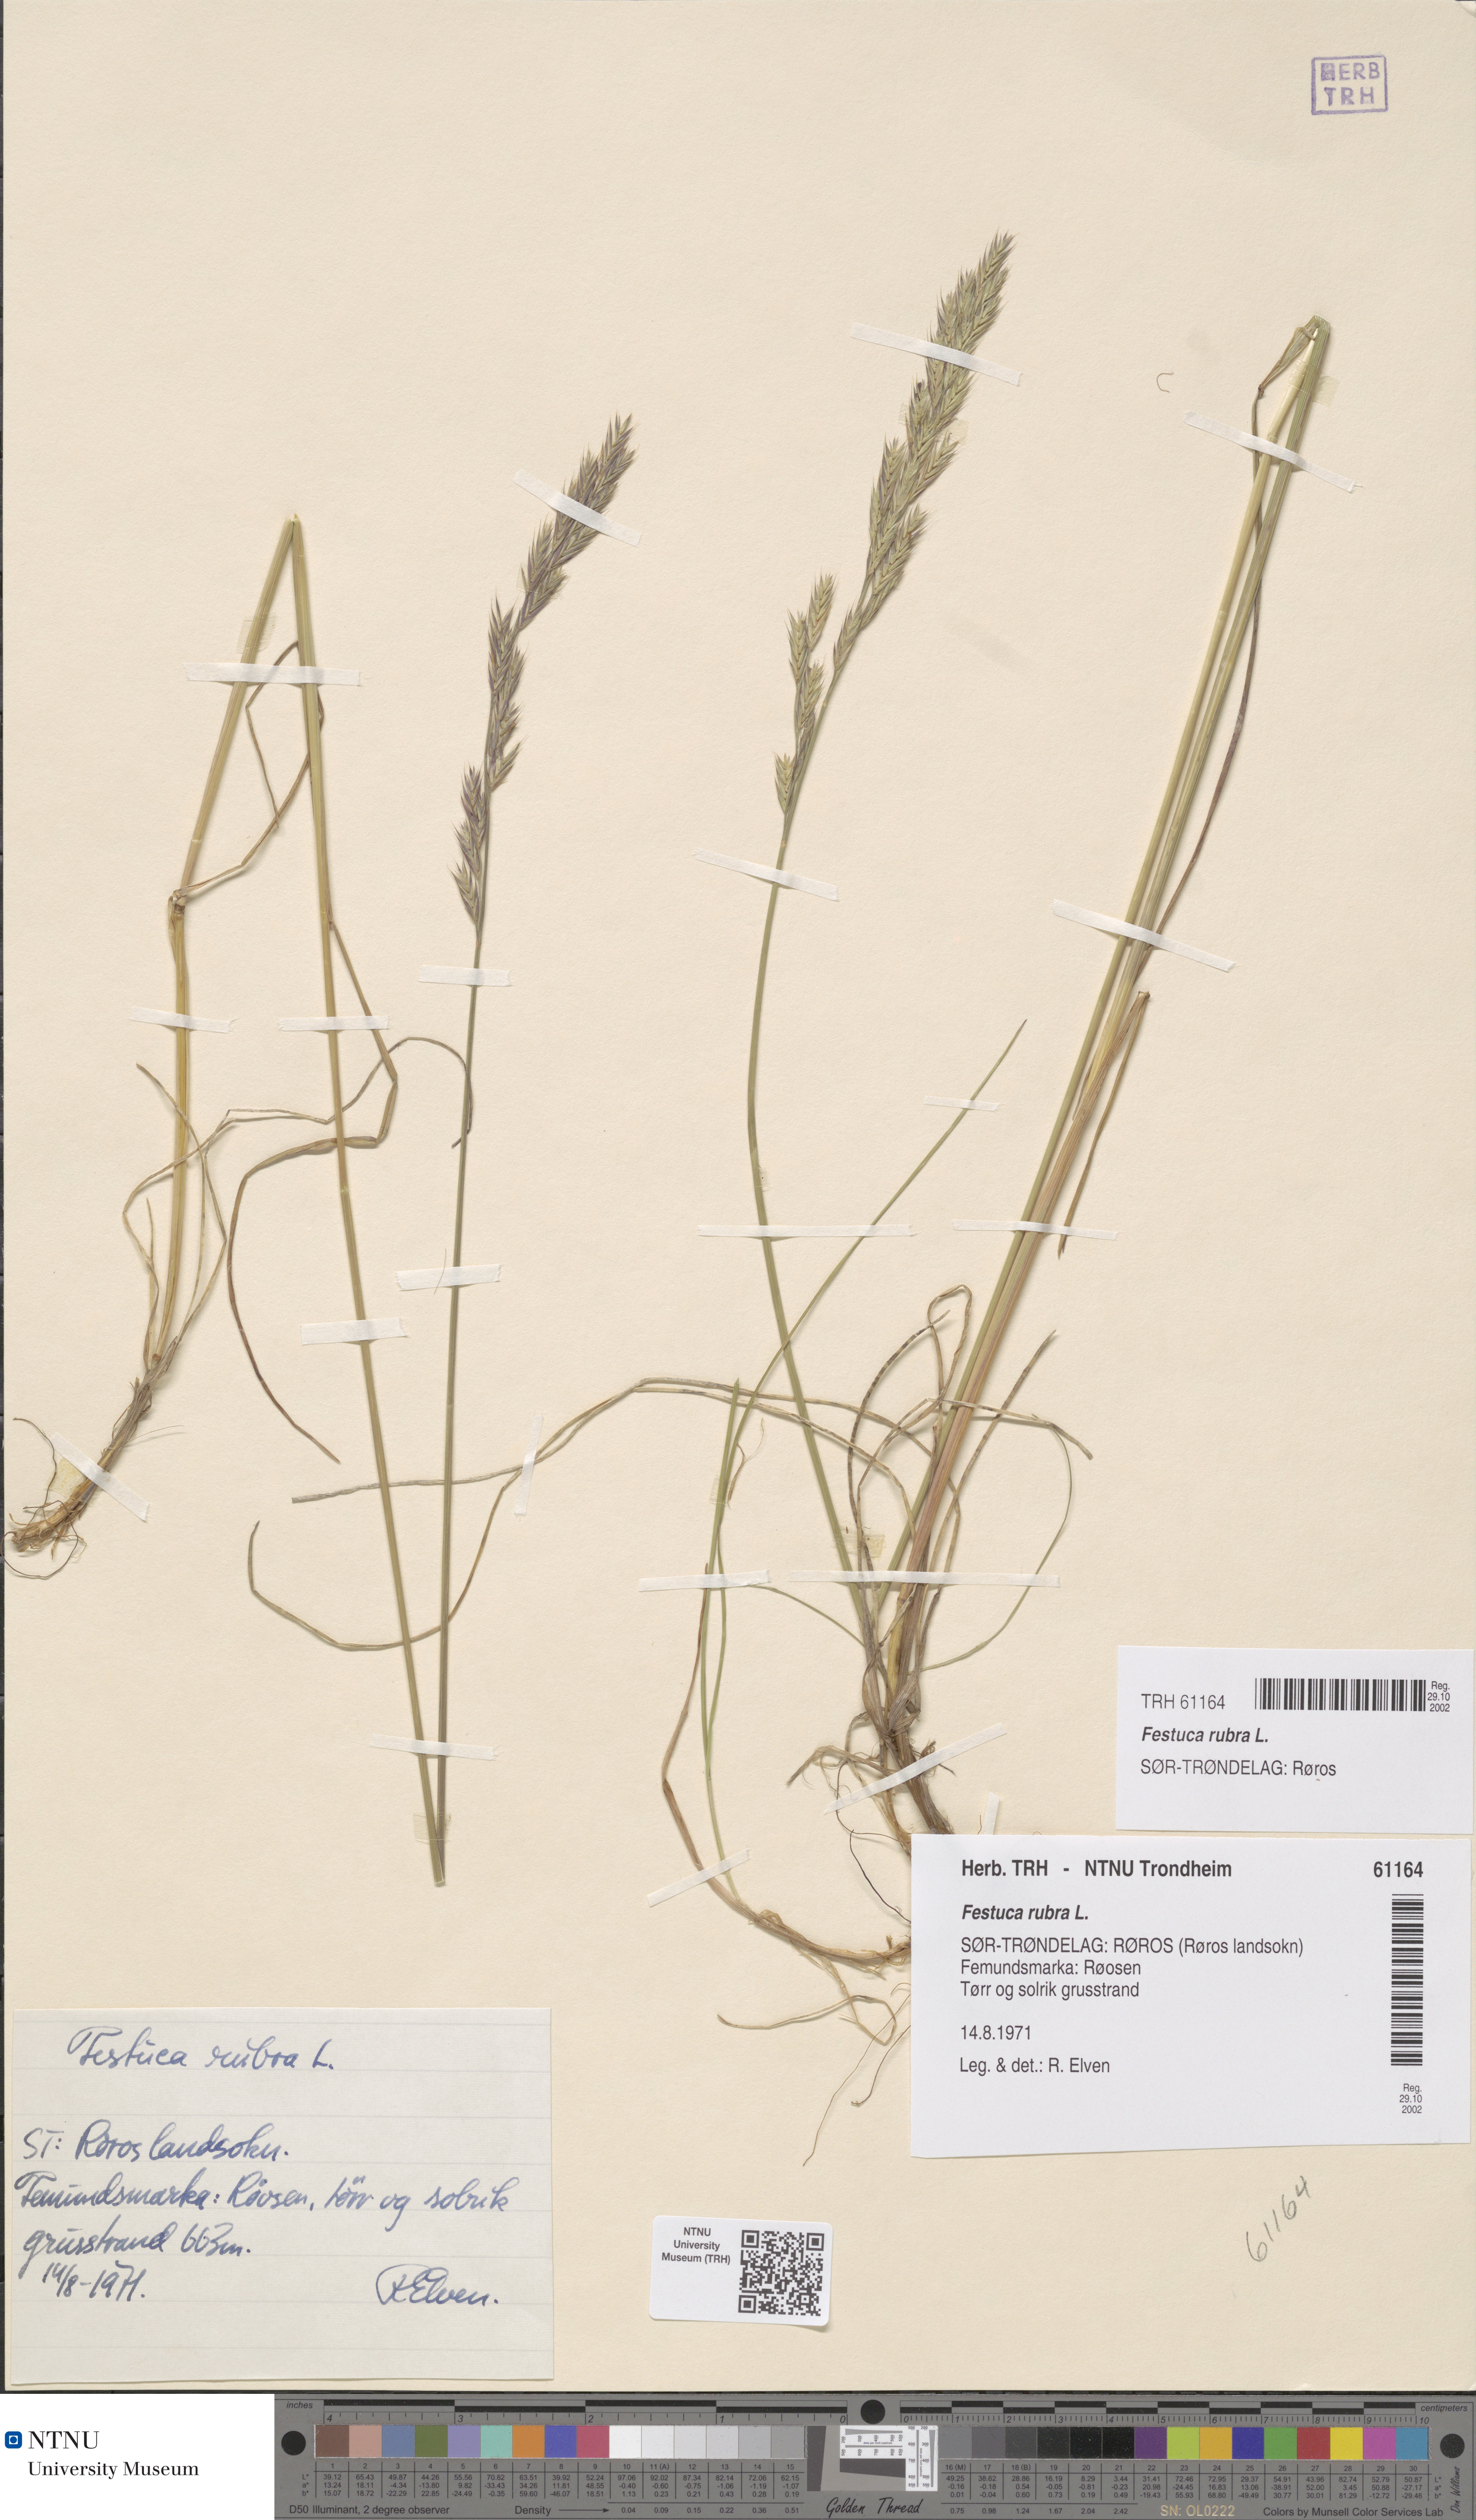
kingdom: Plantae
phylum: Tracheophyta
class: Liliopsida
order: Poales
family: Poaceae
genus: Festuca
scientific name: Festuca rubra
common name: Red fescue
